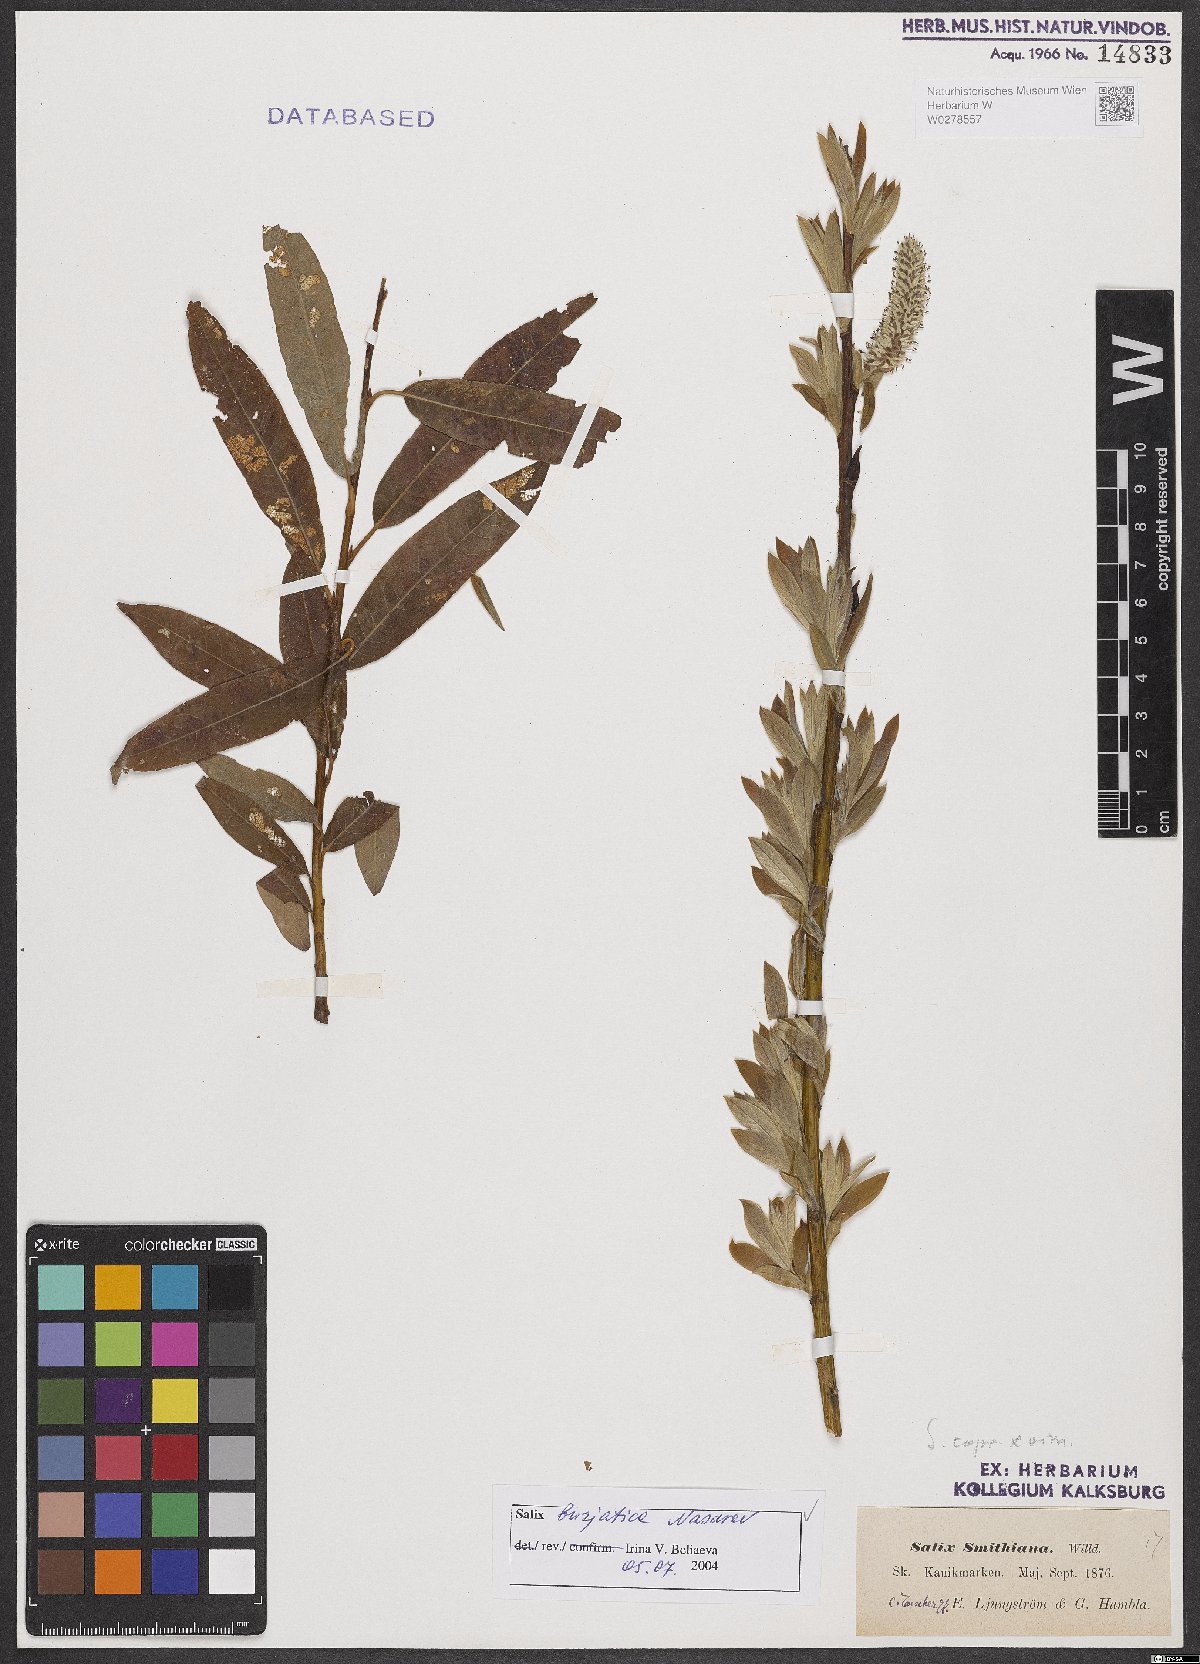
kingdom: Plantae
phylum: Tracheophyta
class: Magnoliopsida
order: Malpighiales
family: Salicaceae
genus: Salix
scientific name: Salix gmelinii
